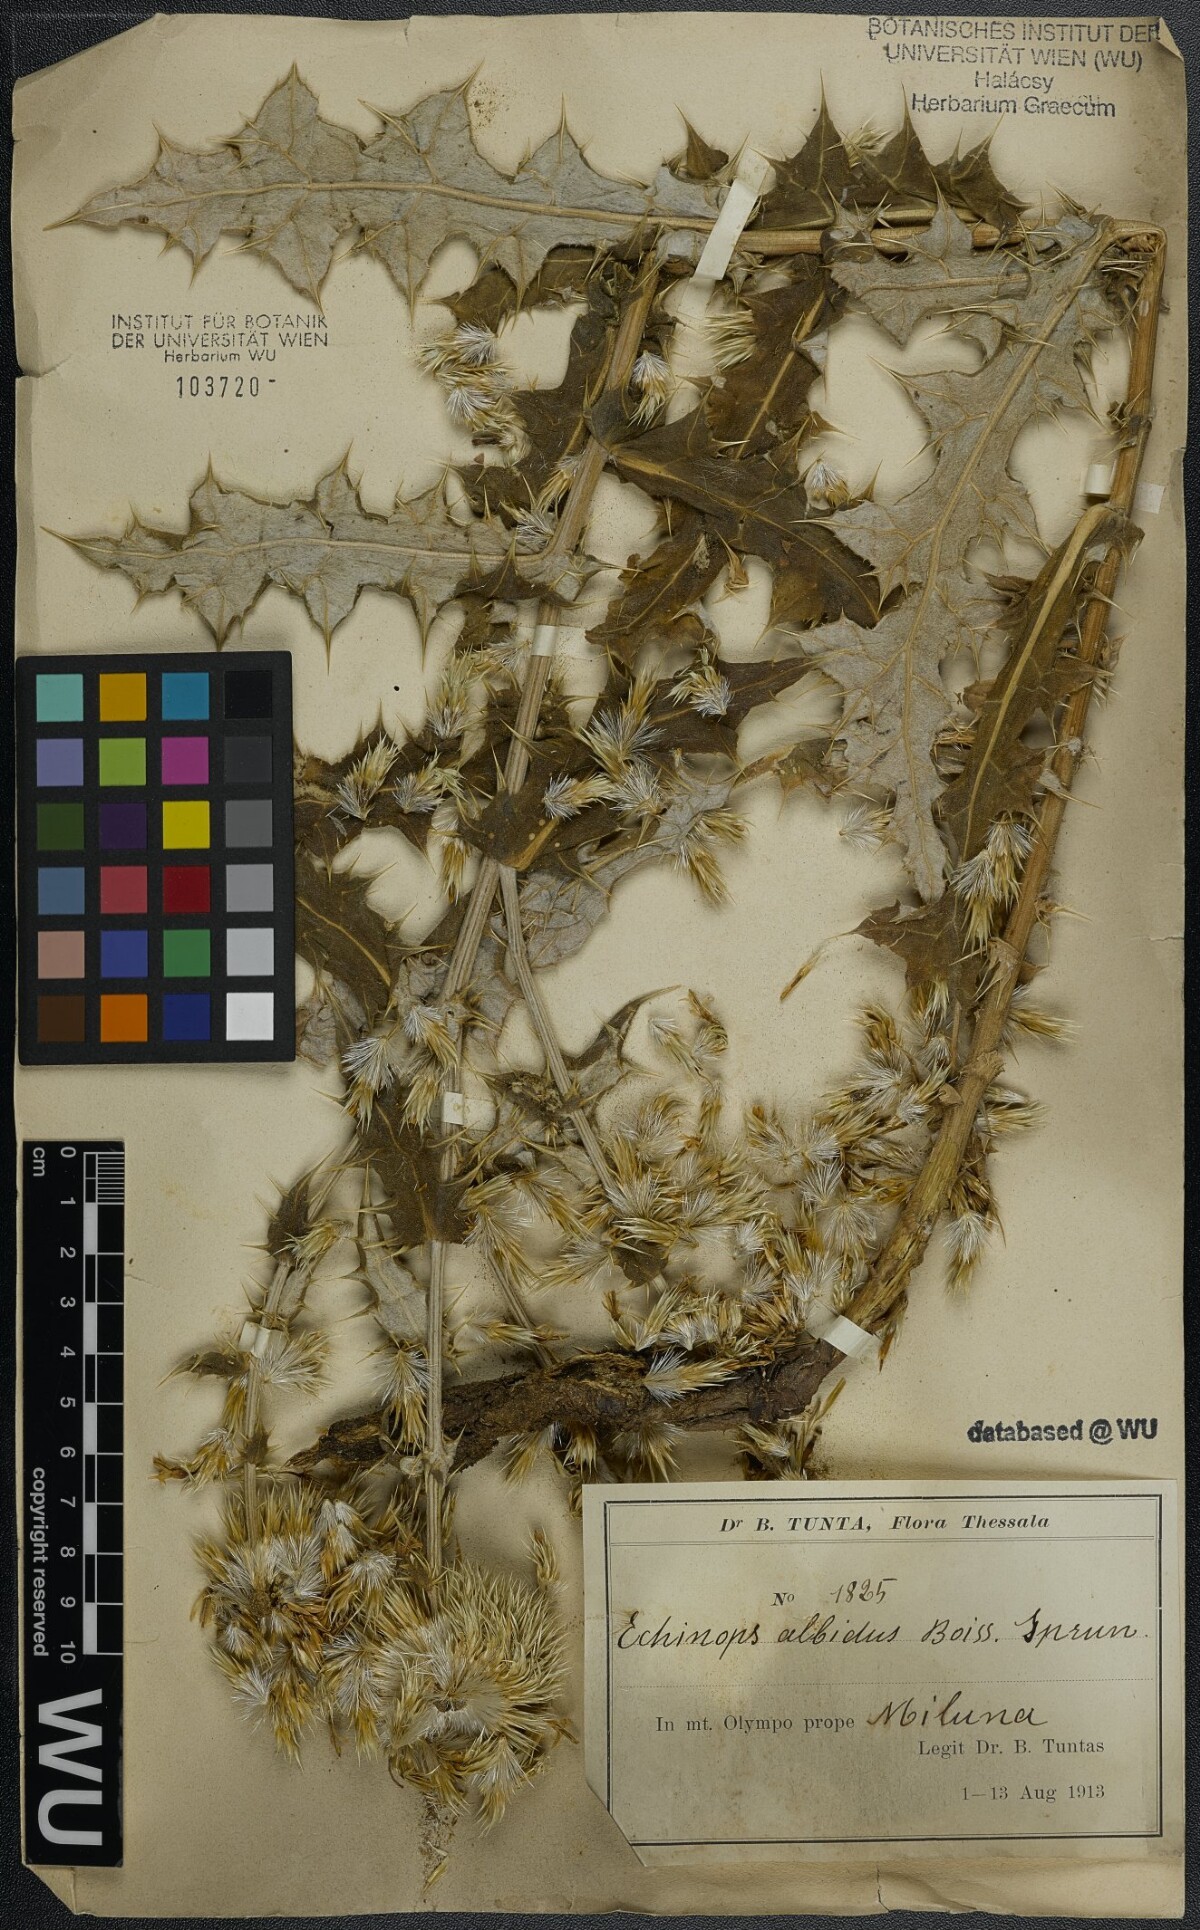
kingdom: Plantae
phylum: Tracheophyta
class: Magnoliopsida
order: Asterales
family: Asteraceae
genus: Echinops
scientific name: Echinops sphaerocephalus
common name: Glandular globe-thistle
